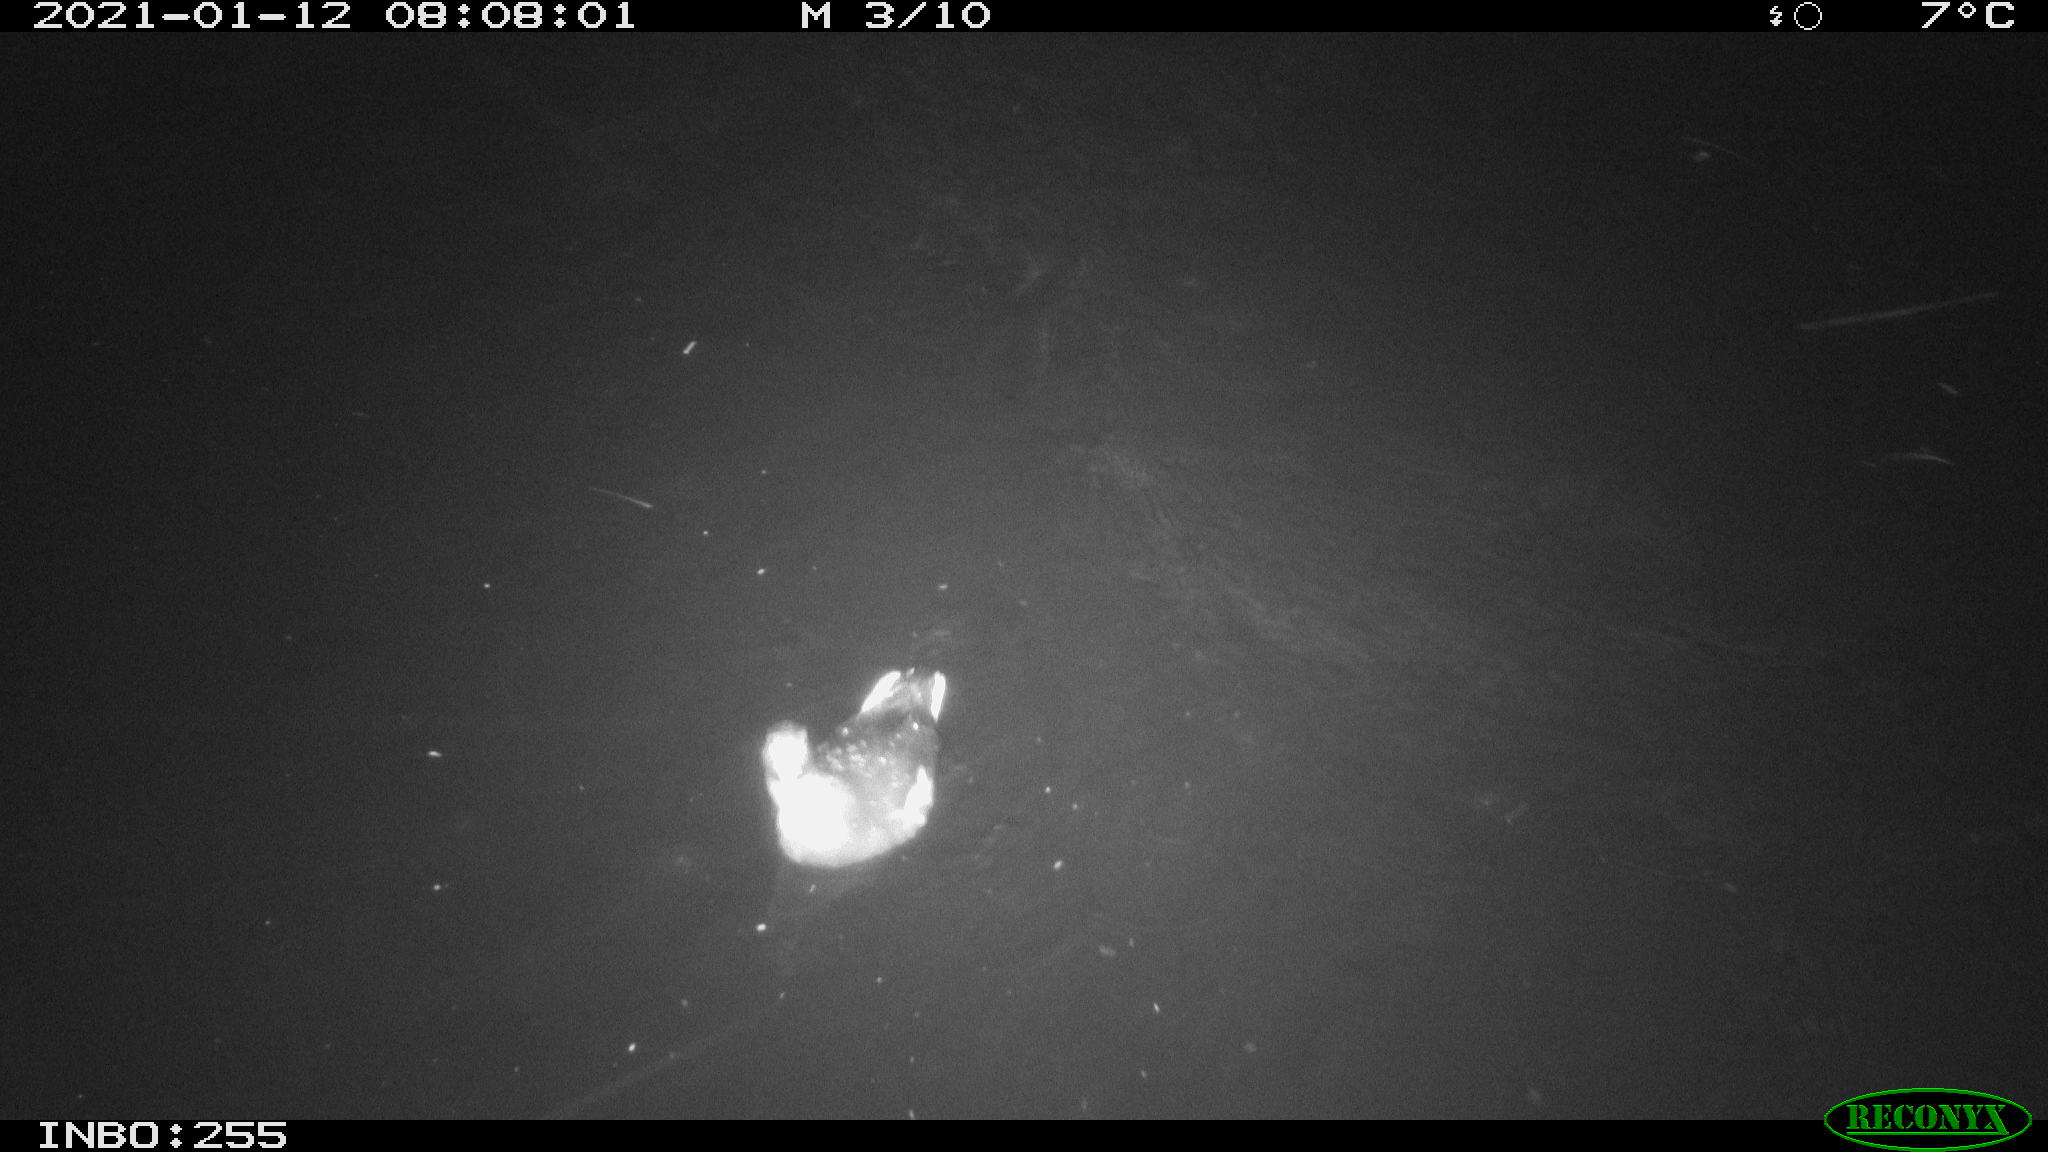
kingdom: Animalia
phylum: Chordata
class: Aves
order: Gruiformes
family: Rallidae
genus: Gallinula
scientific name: Gallinula chloropus
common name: Common moorhen
